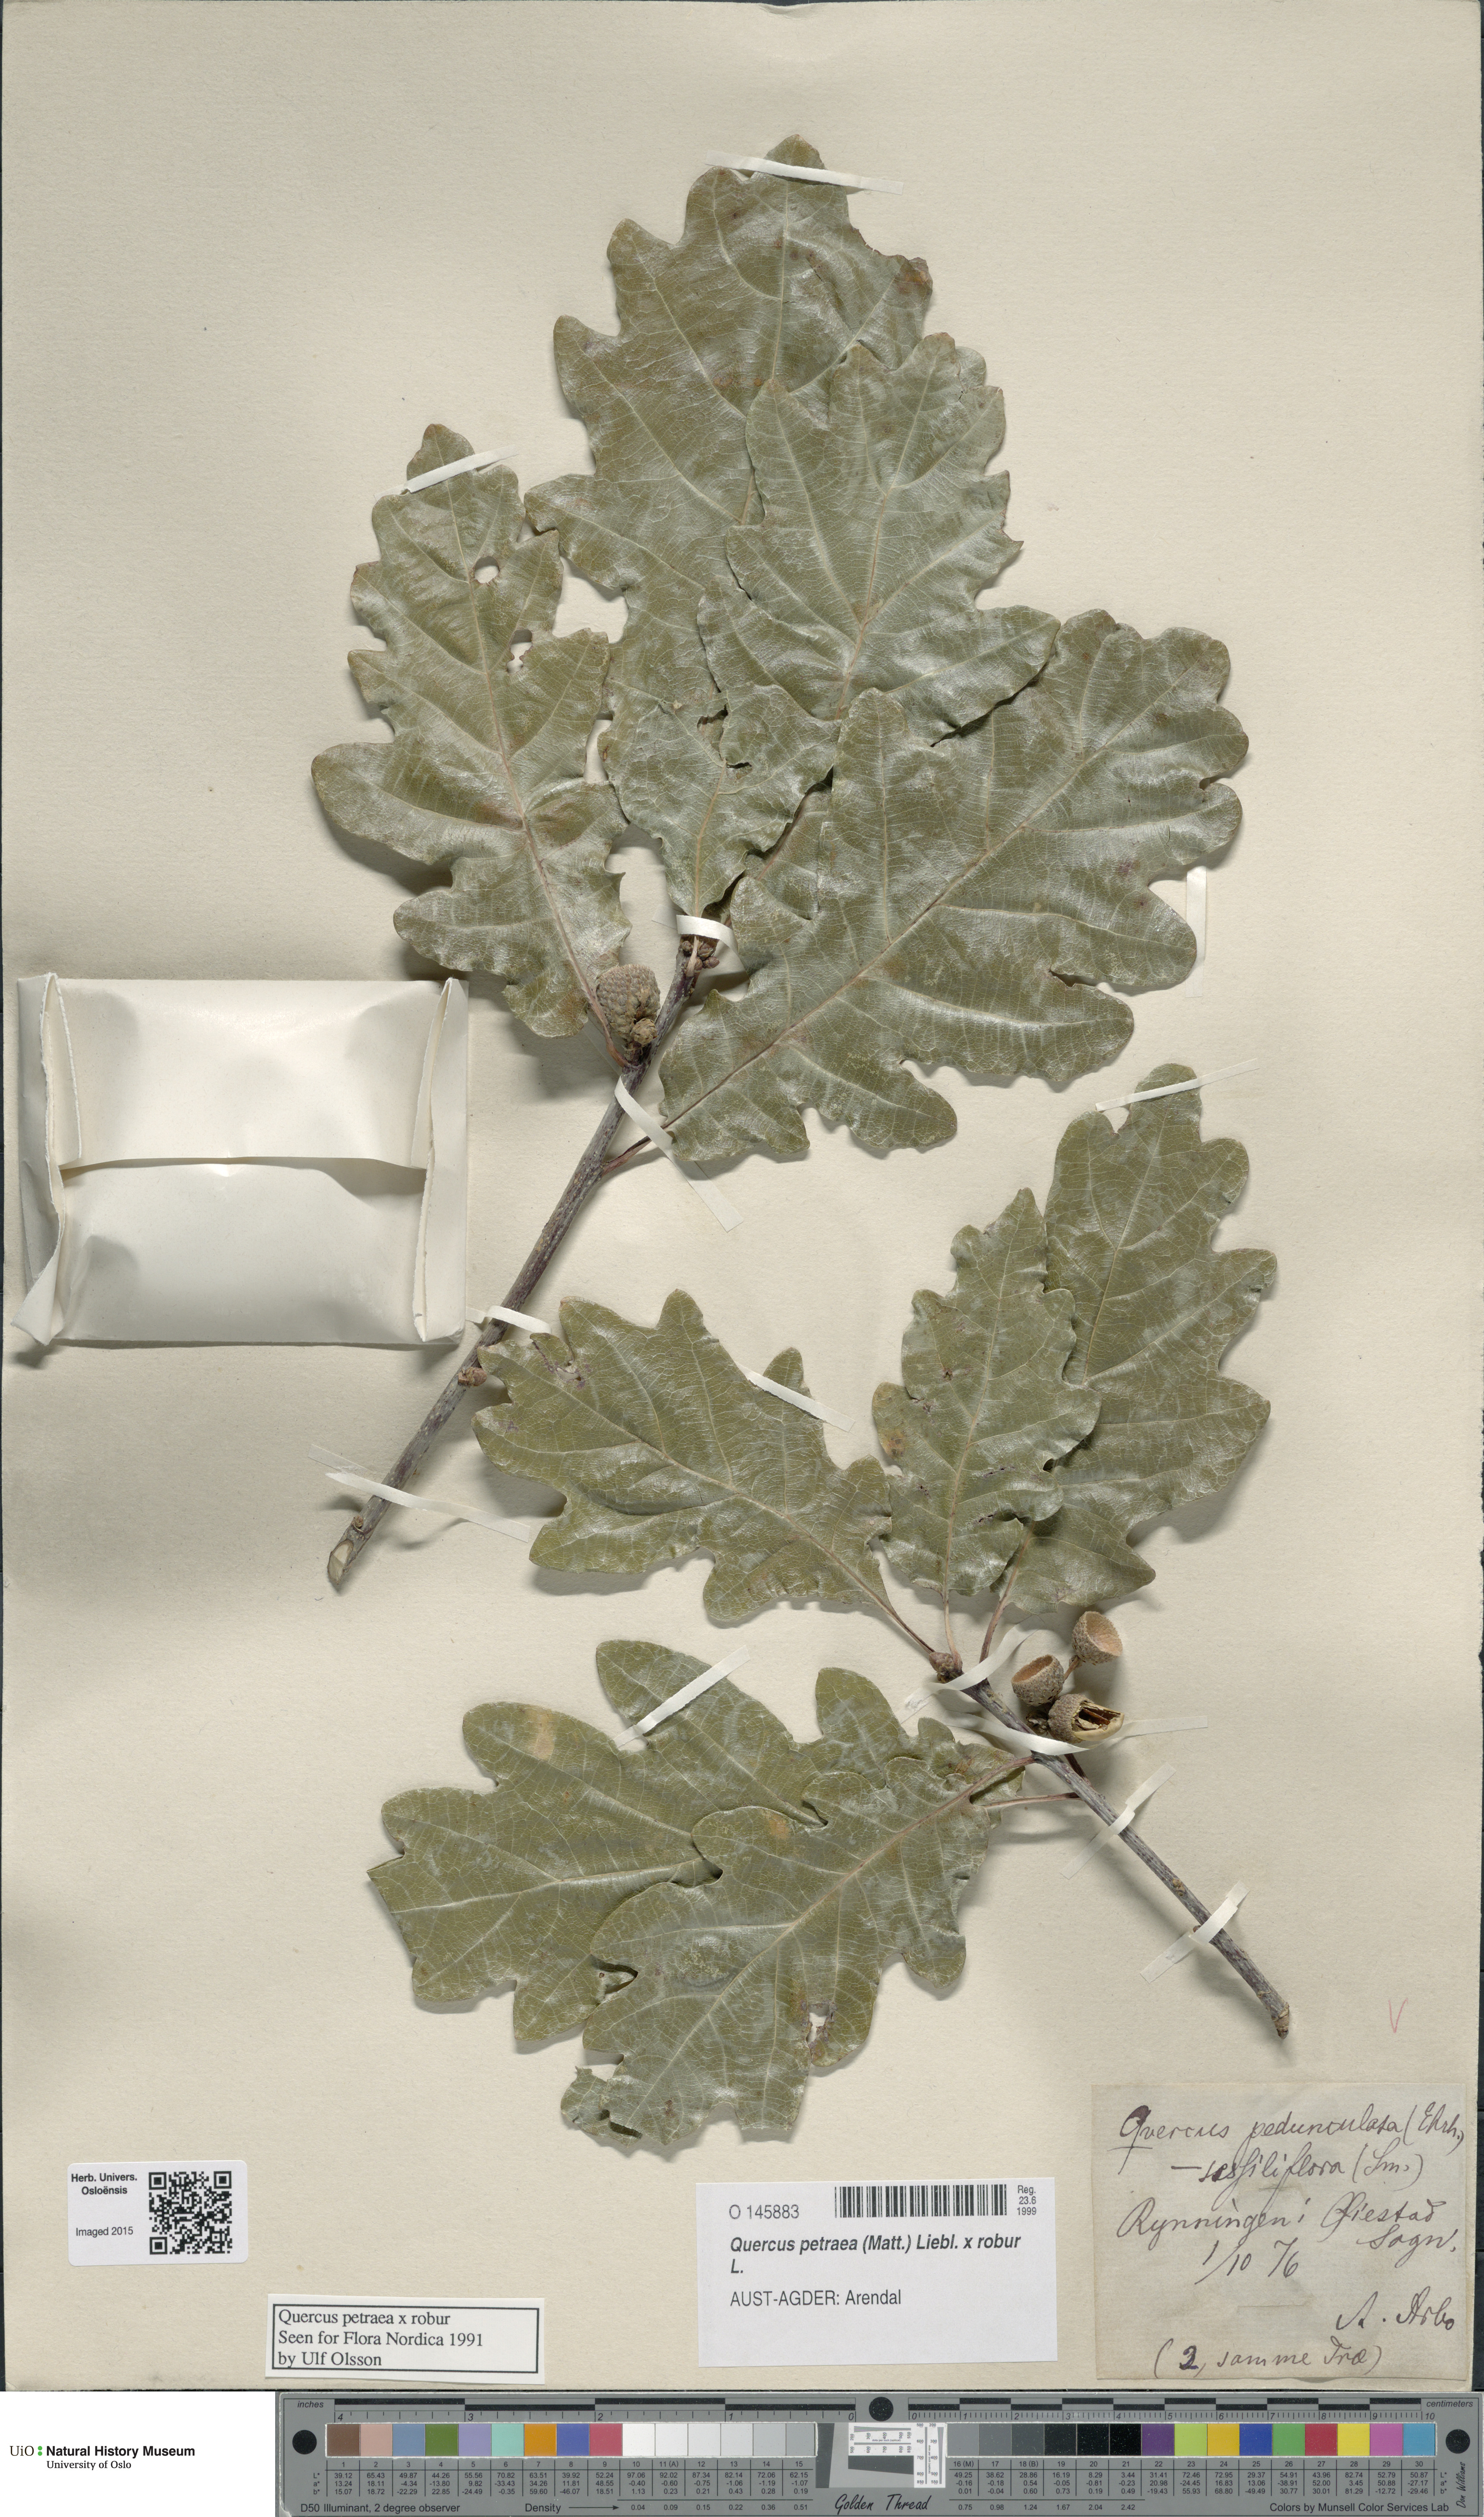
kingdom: Plantae
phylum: Tracheophyta
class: Magnoliopsida
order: Fagales
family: Fagaceae
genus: Quercus
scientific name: Quercus
